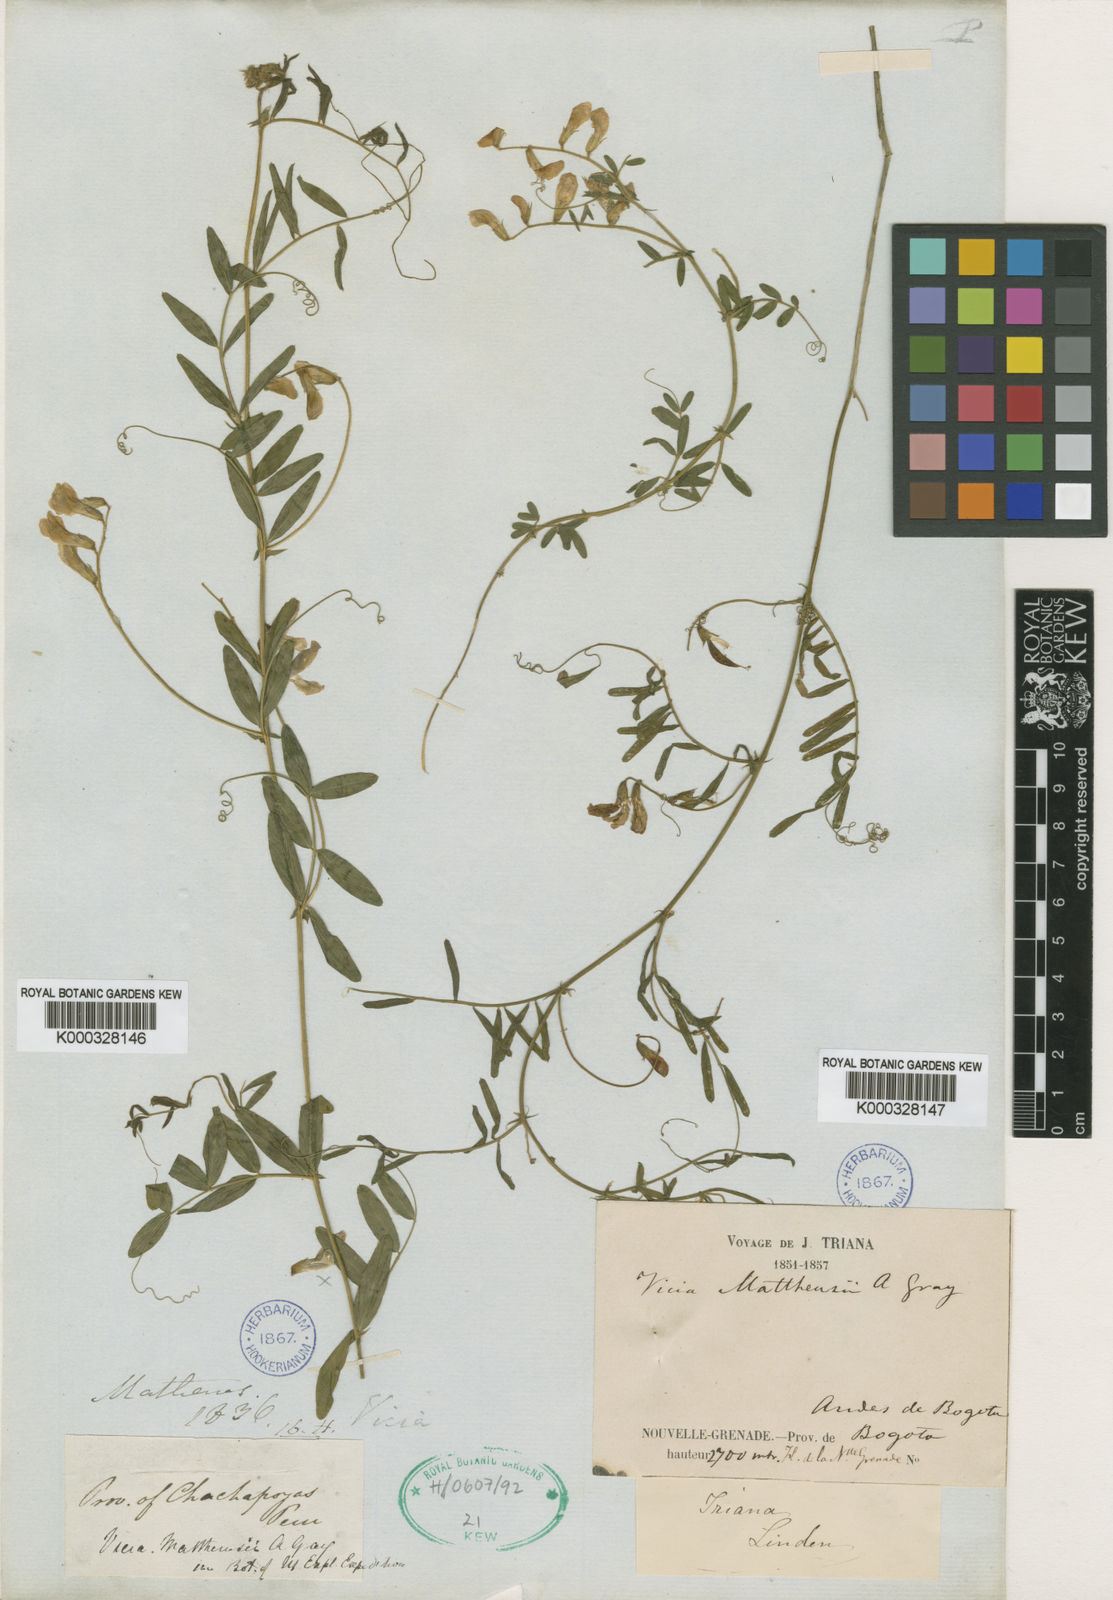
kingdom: Plantae
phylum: Tracheophyta
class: Magnoliopsida
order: Fabales
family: Fabaceae
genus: Vicia
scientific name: Vicia
